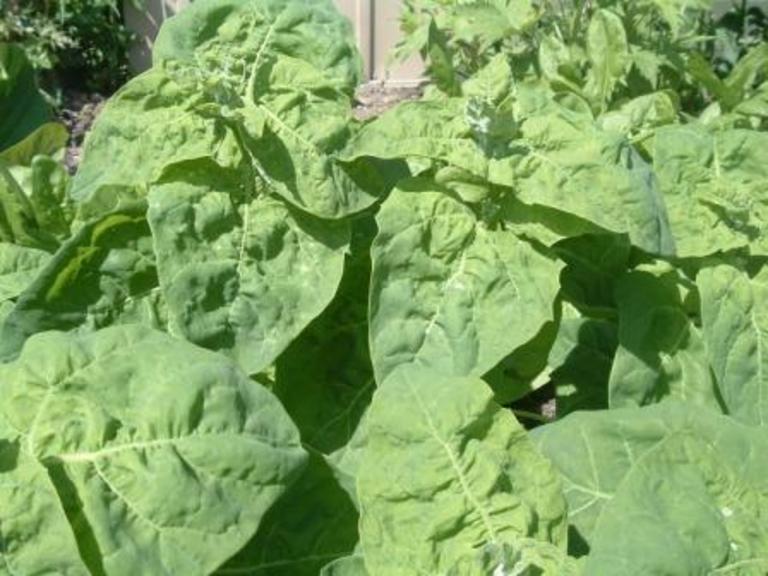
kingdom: Plantae
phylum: Tracheophyta
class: Magnoliopsida
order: Caryophyllales
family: Amaranthaceae
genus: Atriplex
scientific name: Atriplex hortensis
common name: Garden orache
